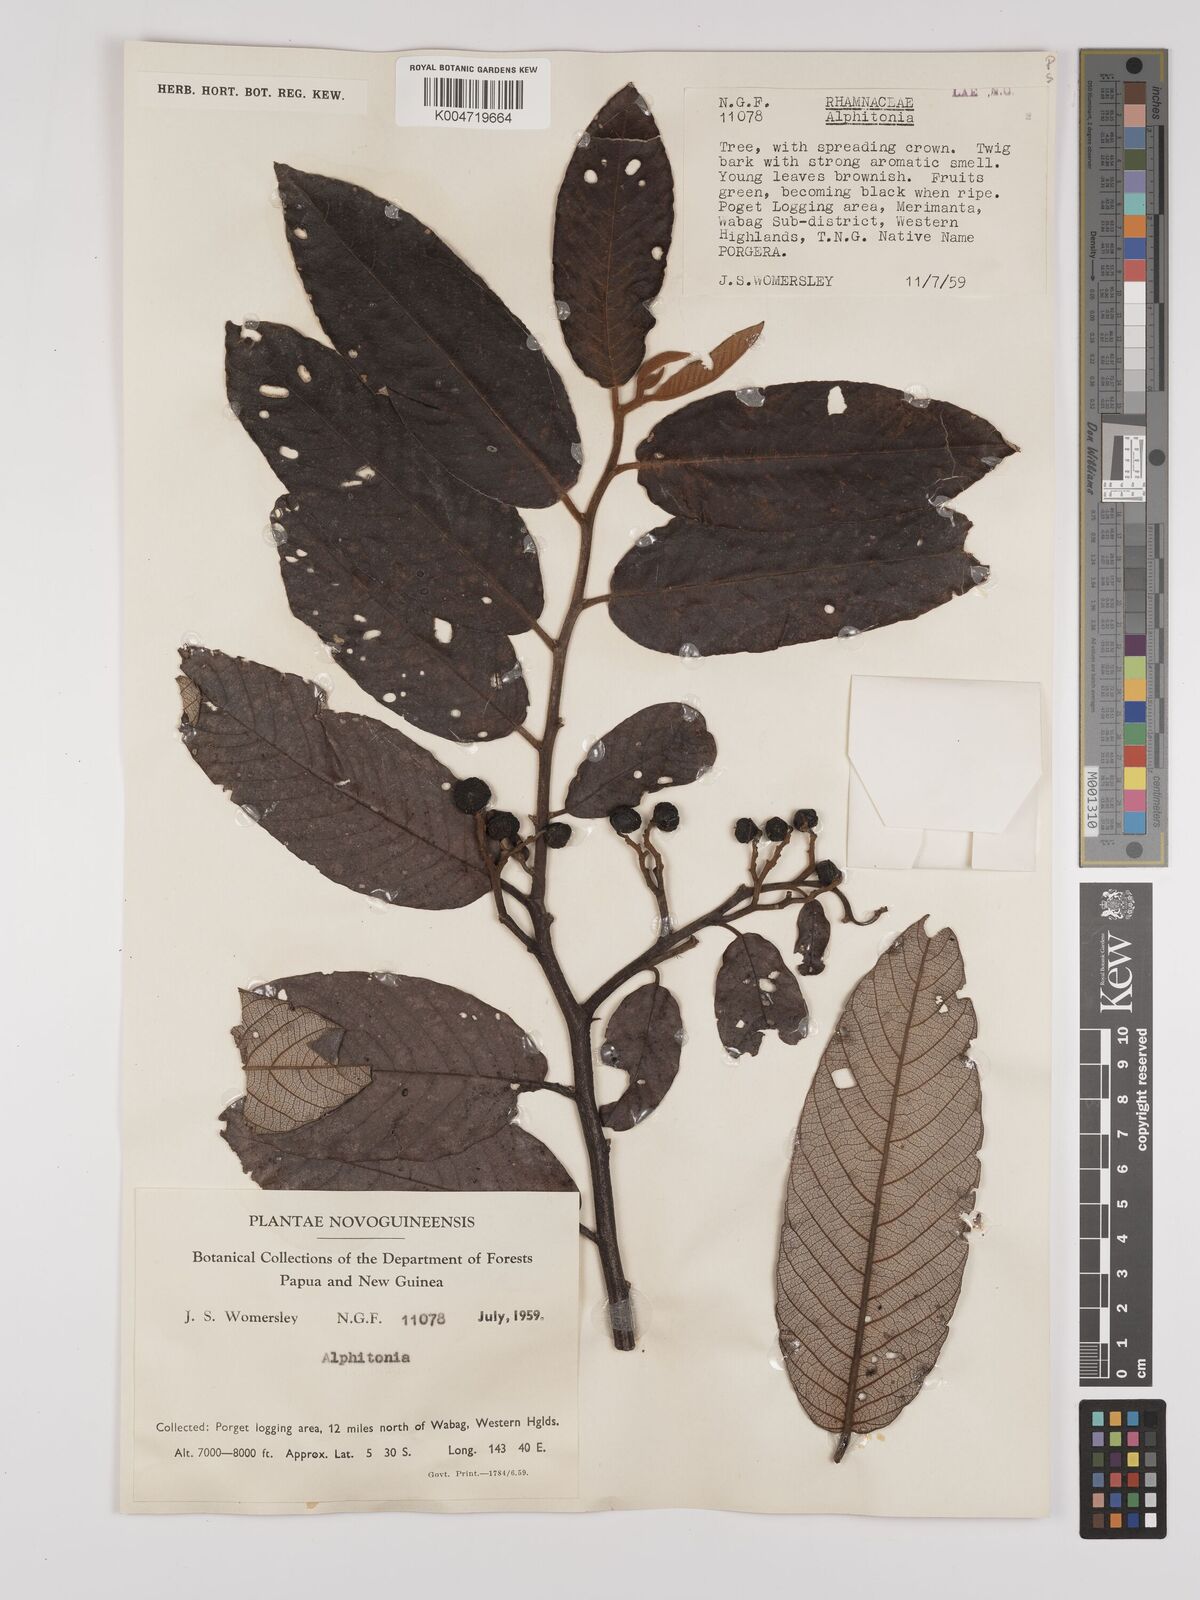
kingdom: Plantae
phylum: Tracheophyta
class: Magnoliopsida
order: Rosales
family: Rhamnaceae
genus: Alphitonia
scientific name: Alphitonia
